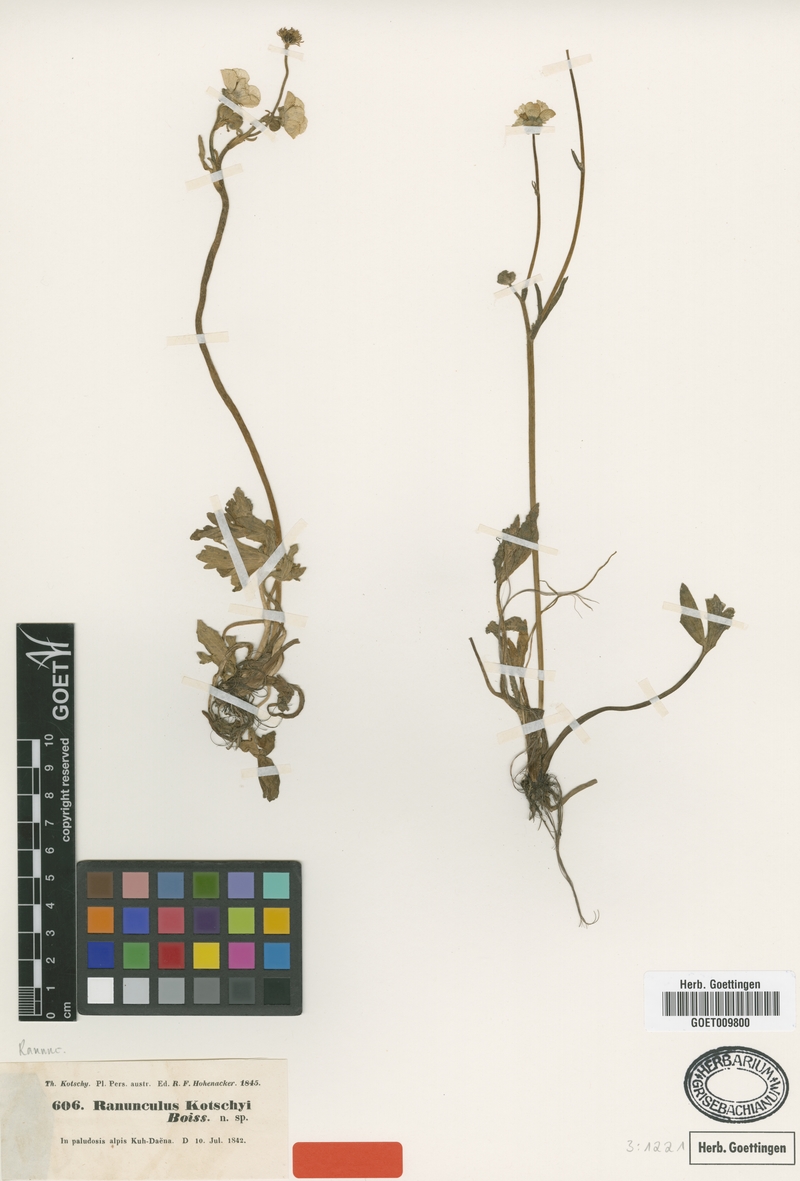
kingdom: Plantae
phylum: Tracheophyta
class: Magnoliopsida
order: Ranunculales
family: Ranunculaceae
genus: Ranunculus
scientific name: Ranunculus kotschyi
